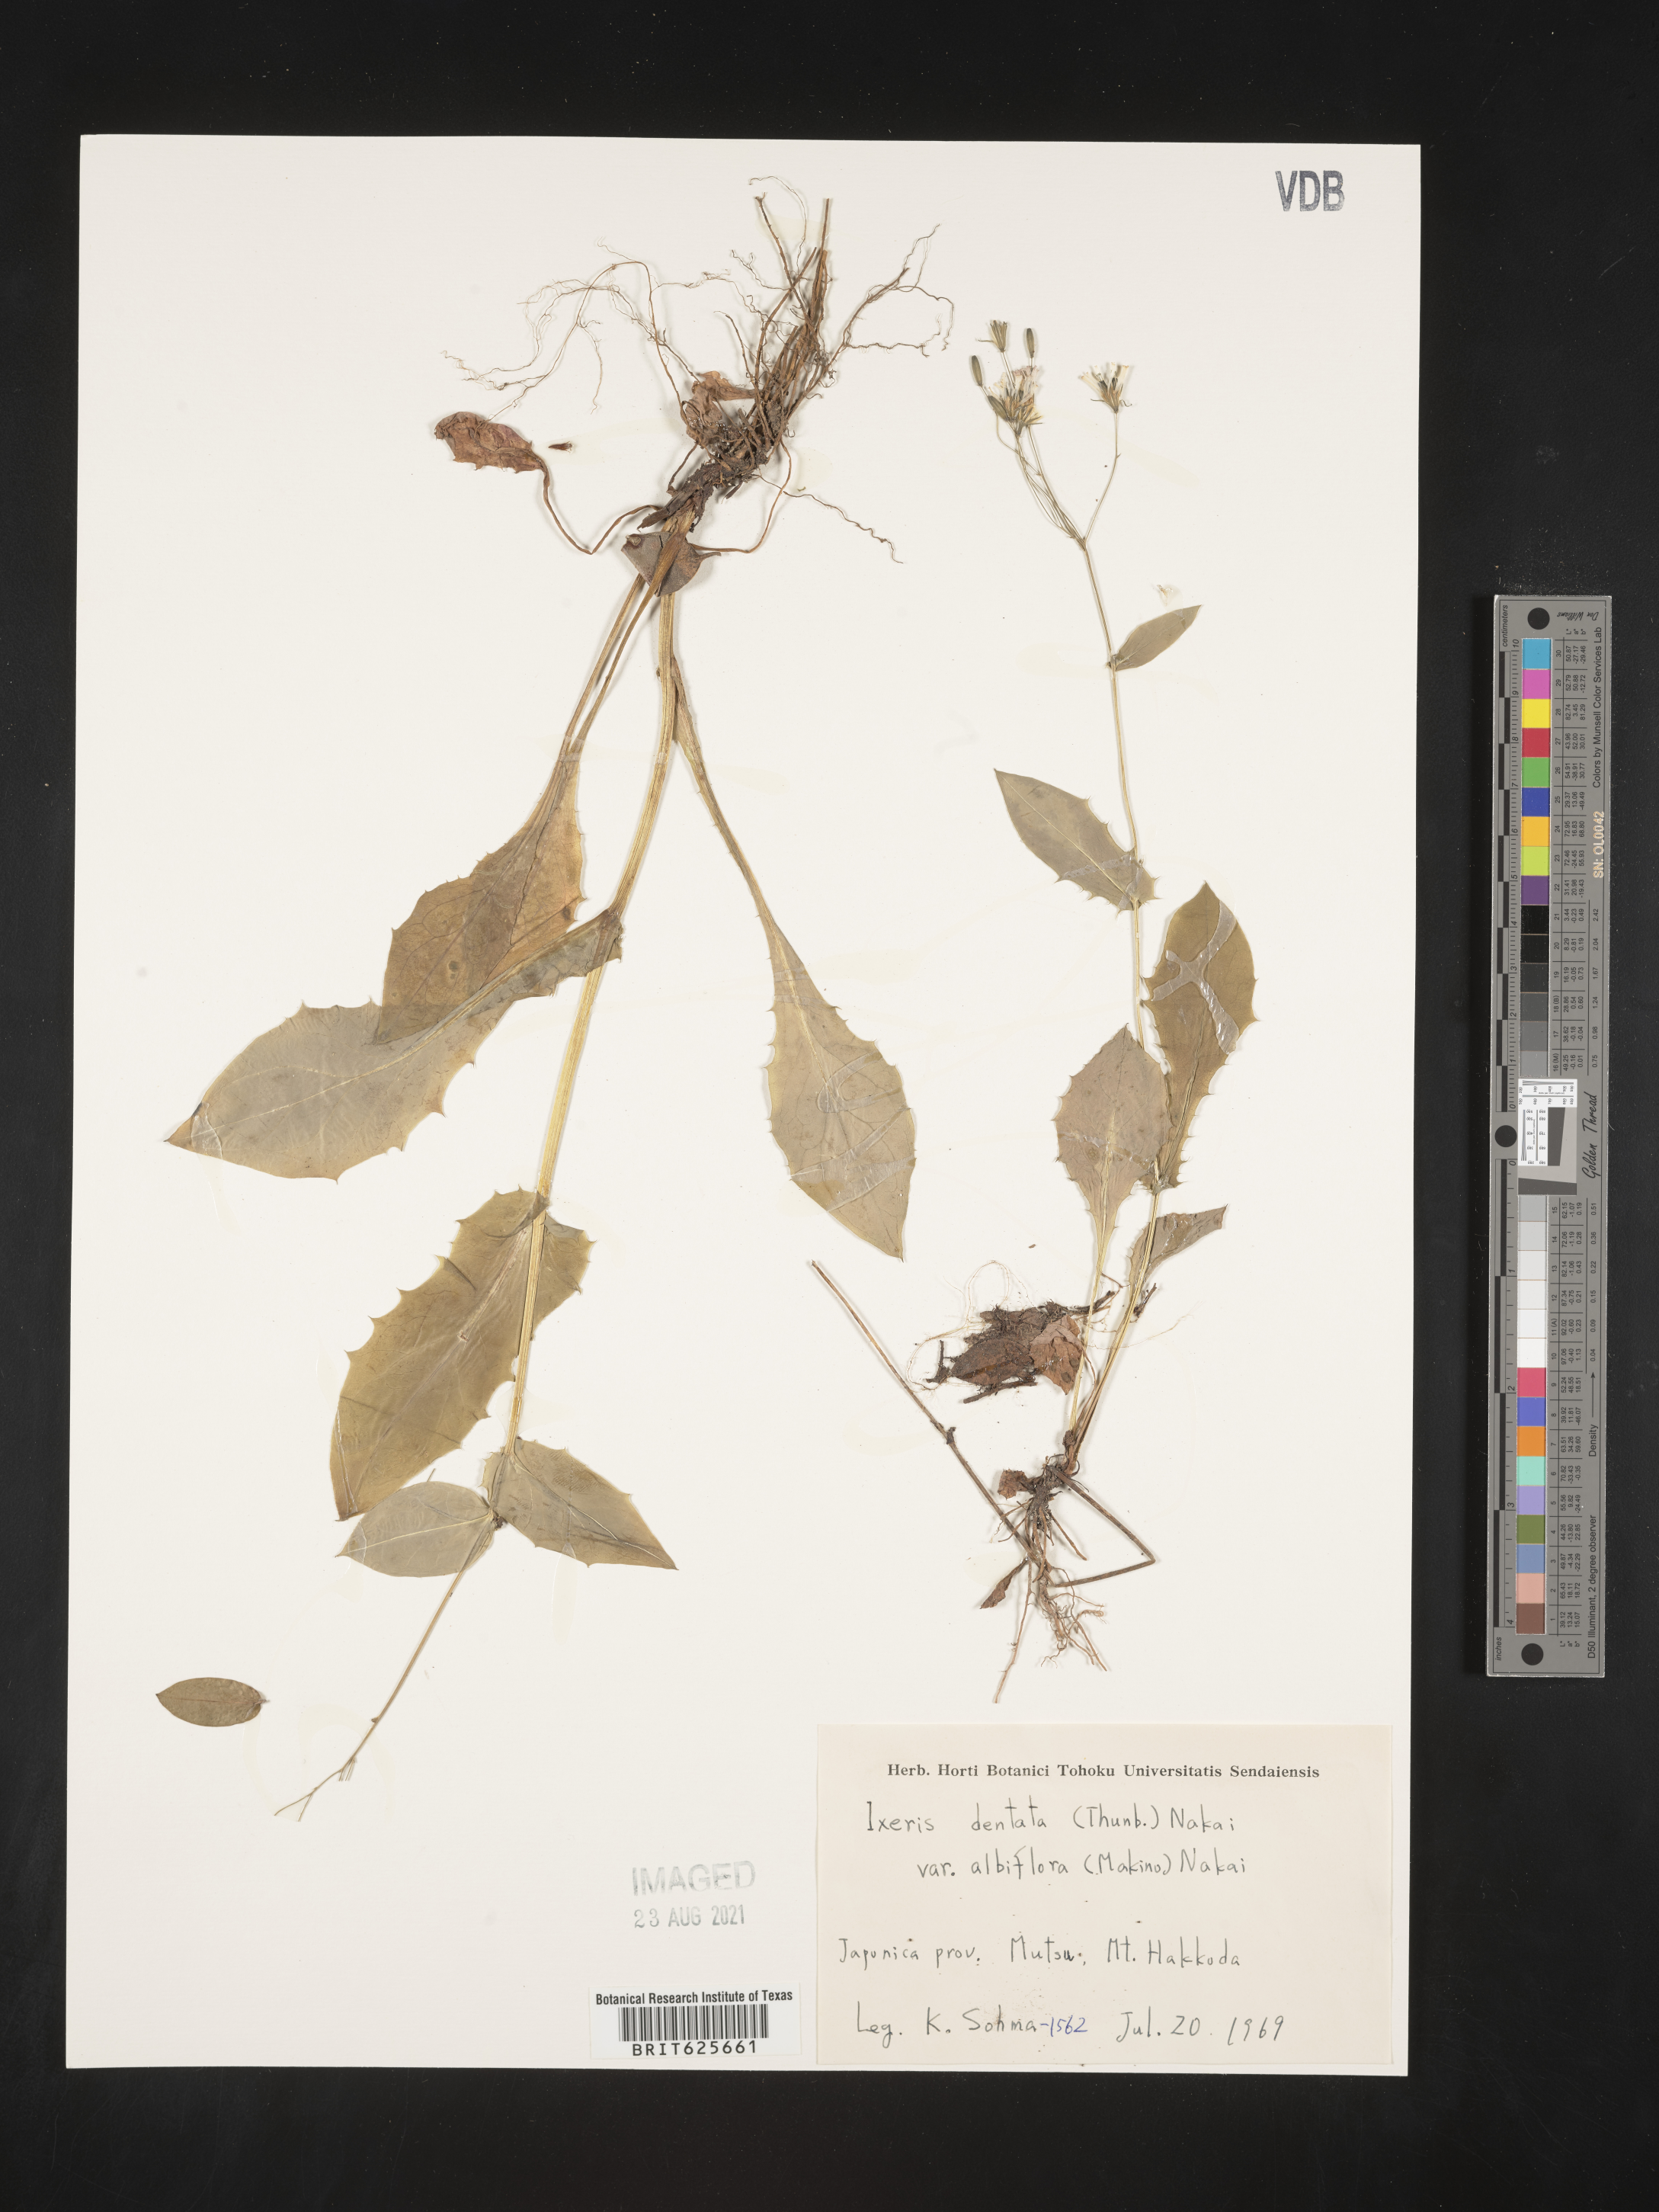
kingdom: Plantae
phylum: Tracheophyta
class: Magnoliopsida
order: Asterales
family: Asteraceae
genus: Ixeridium
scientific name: Ixeridium dentatum
